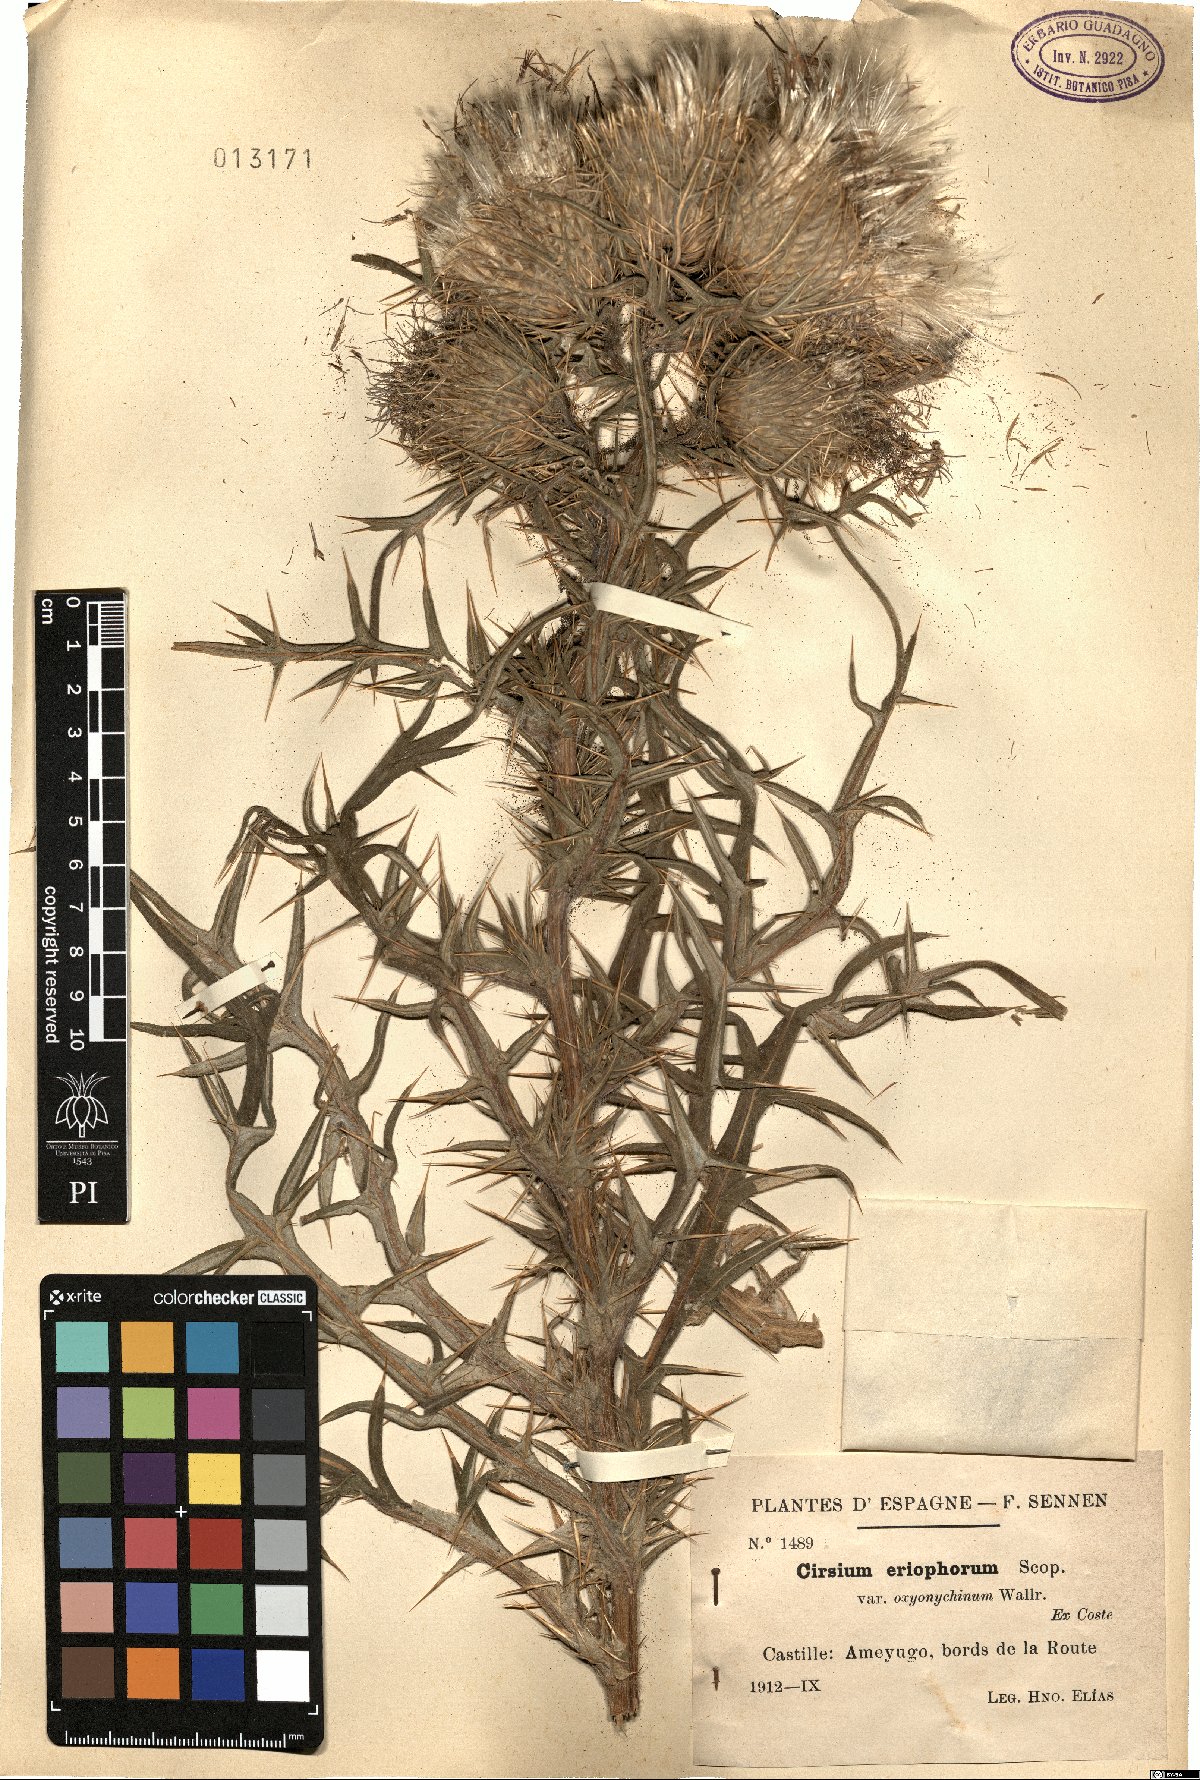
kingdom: Plantae
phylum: Tracheophyta
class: Magnoliopsida
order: Asterales
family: Asteraceae
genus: Lophiolepis
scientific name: Lophiolepis eriophora
